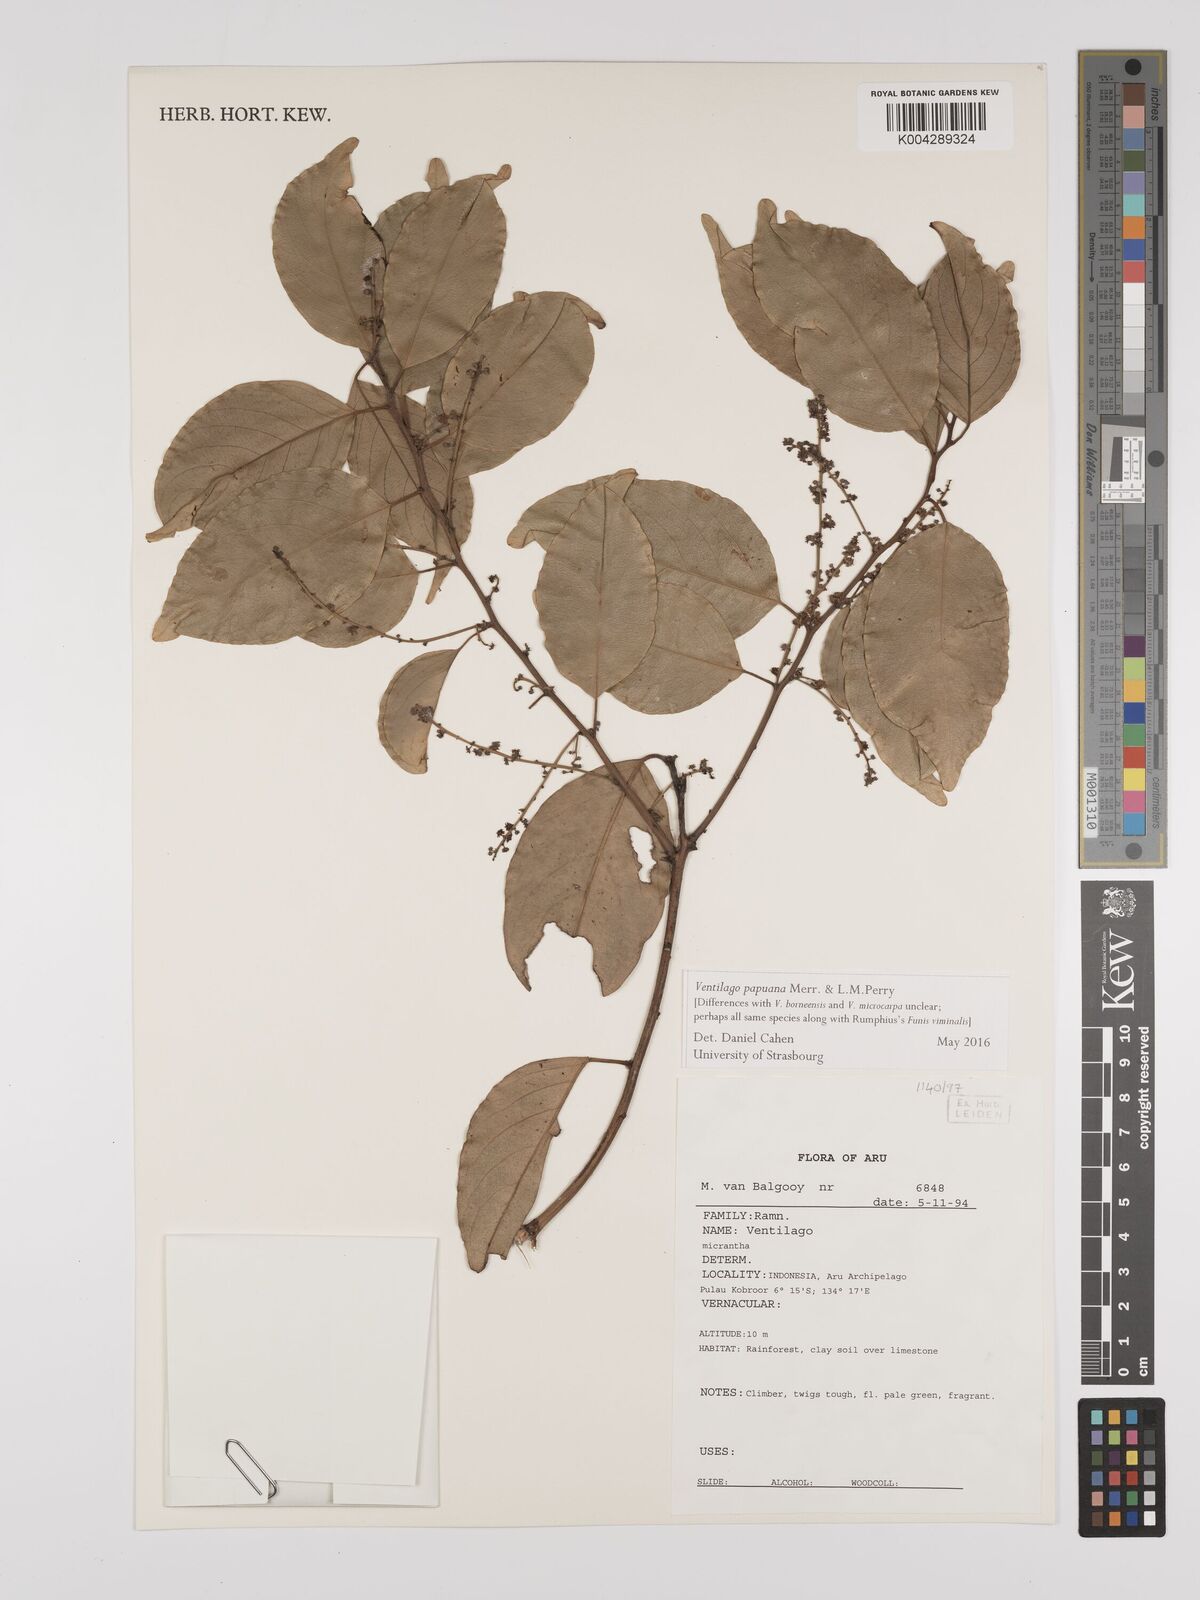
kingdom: Plantae
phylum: Tracheophyta
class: Magnoliopsida
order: Rosales
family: Rhamnaceae
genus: Ventilago
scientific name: Ventilago papuana
